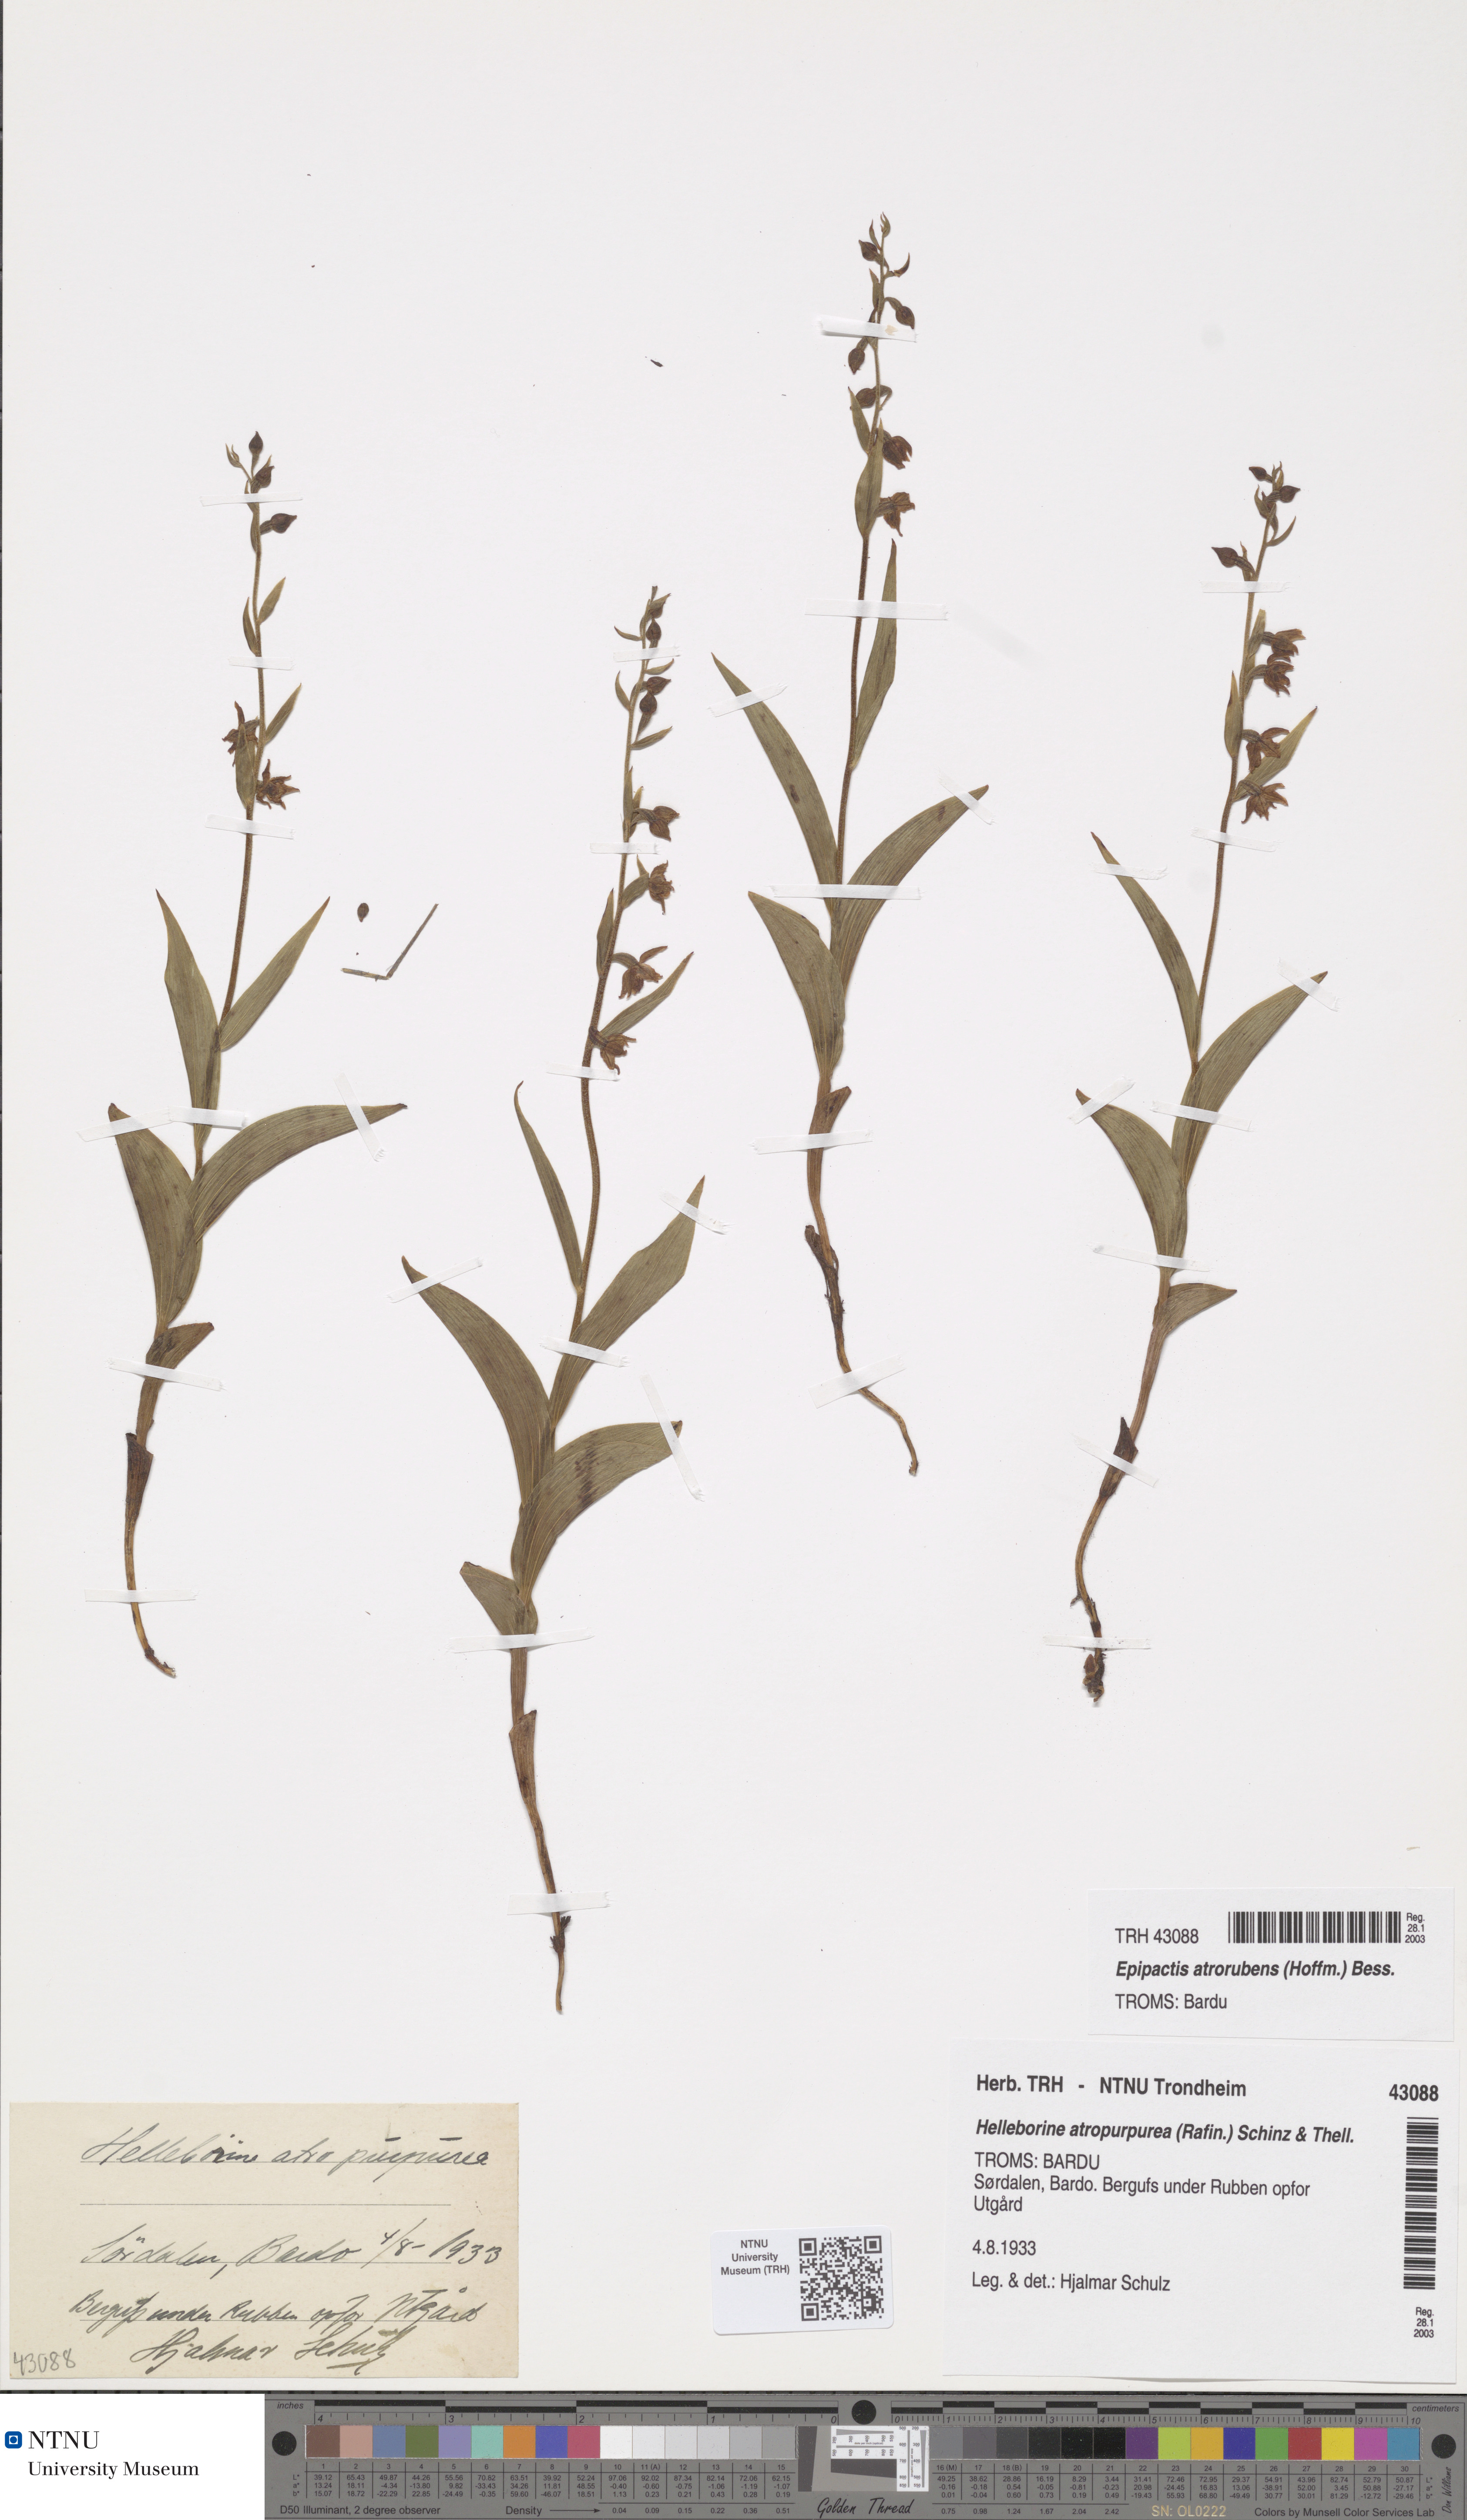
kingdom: Plantae
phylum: Tracheophyta
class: Liliopsida
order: Asparagales
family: Orchidaceae
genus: Epipactis
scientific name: Epipactis atrorubens
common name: Dark-red helleborine
